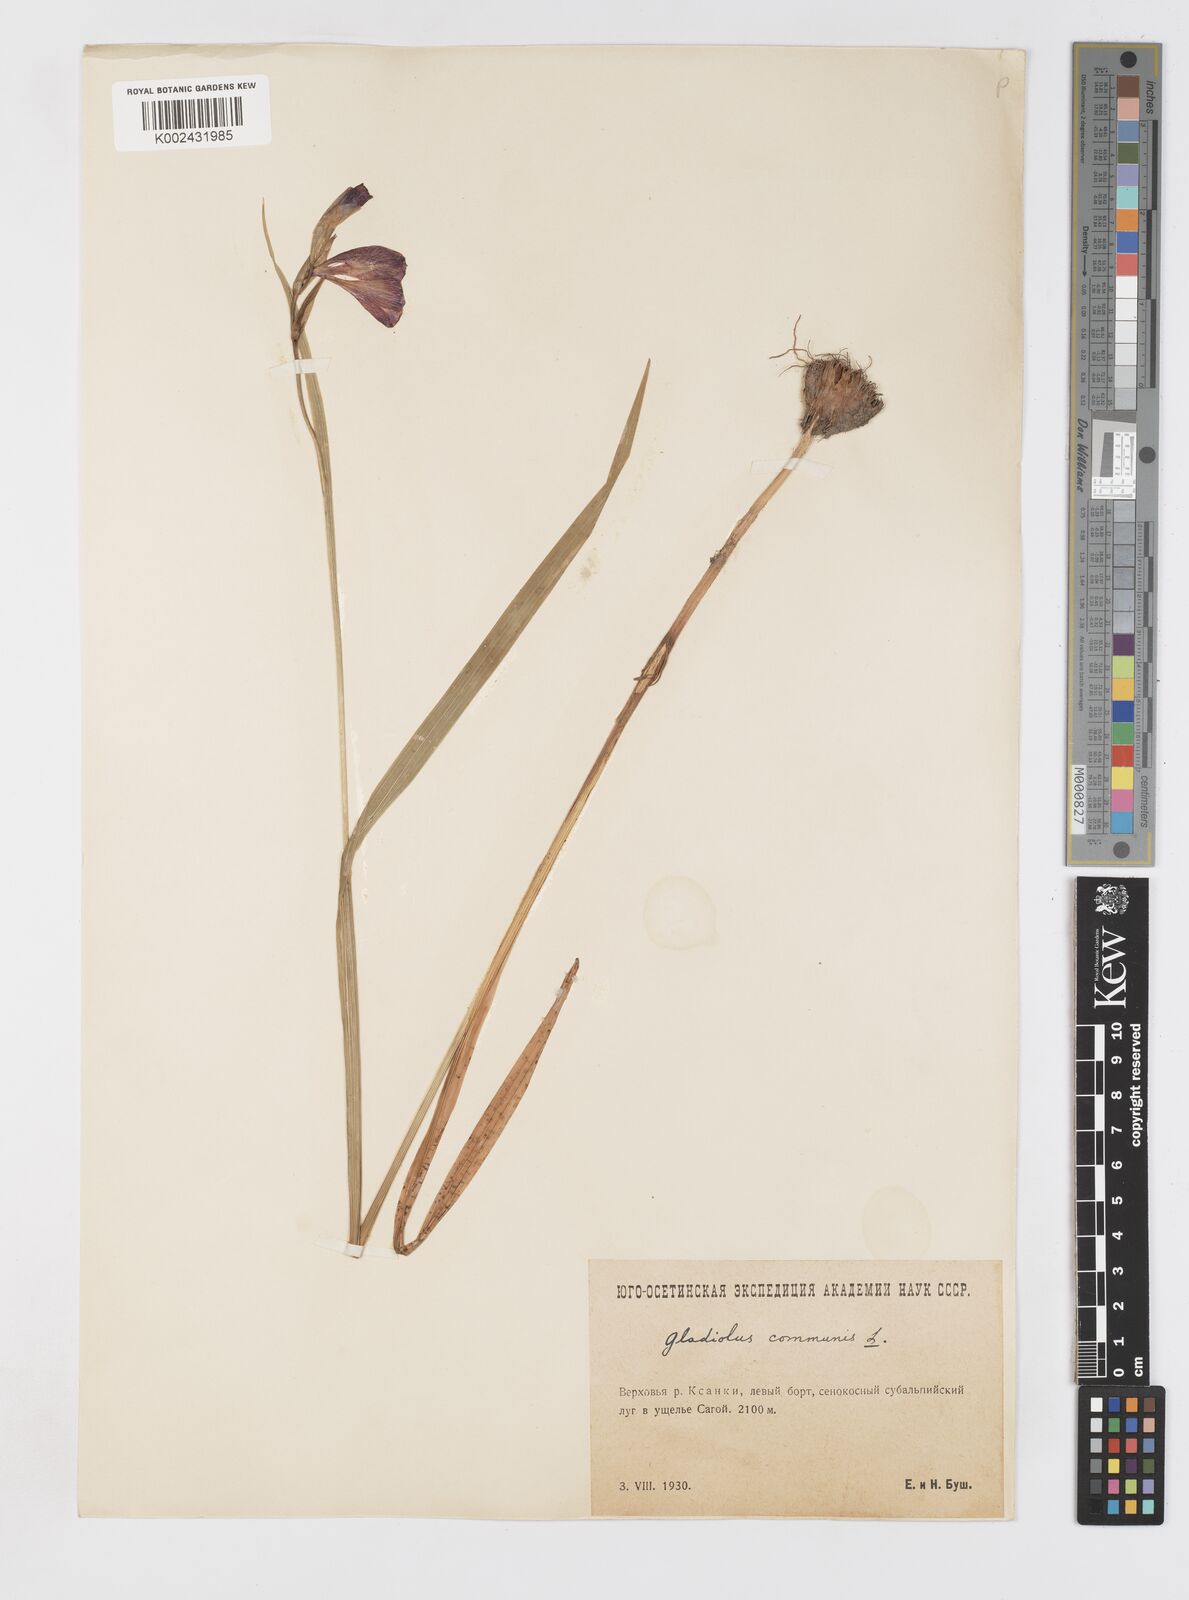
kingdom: Plantae
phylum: Tracheophyta
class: Liliopsida
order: Asparagales
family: Iridaceae
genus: Gladiolus
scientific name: Gladiolus communis
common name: Eastern gladiolus
